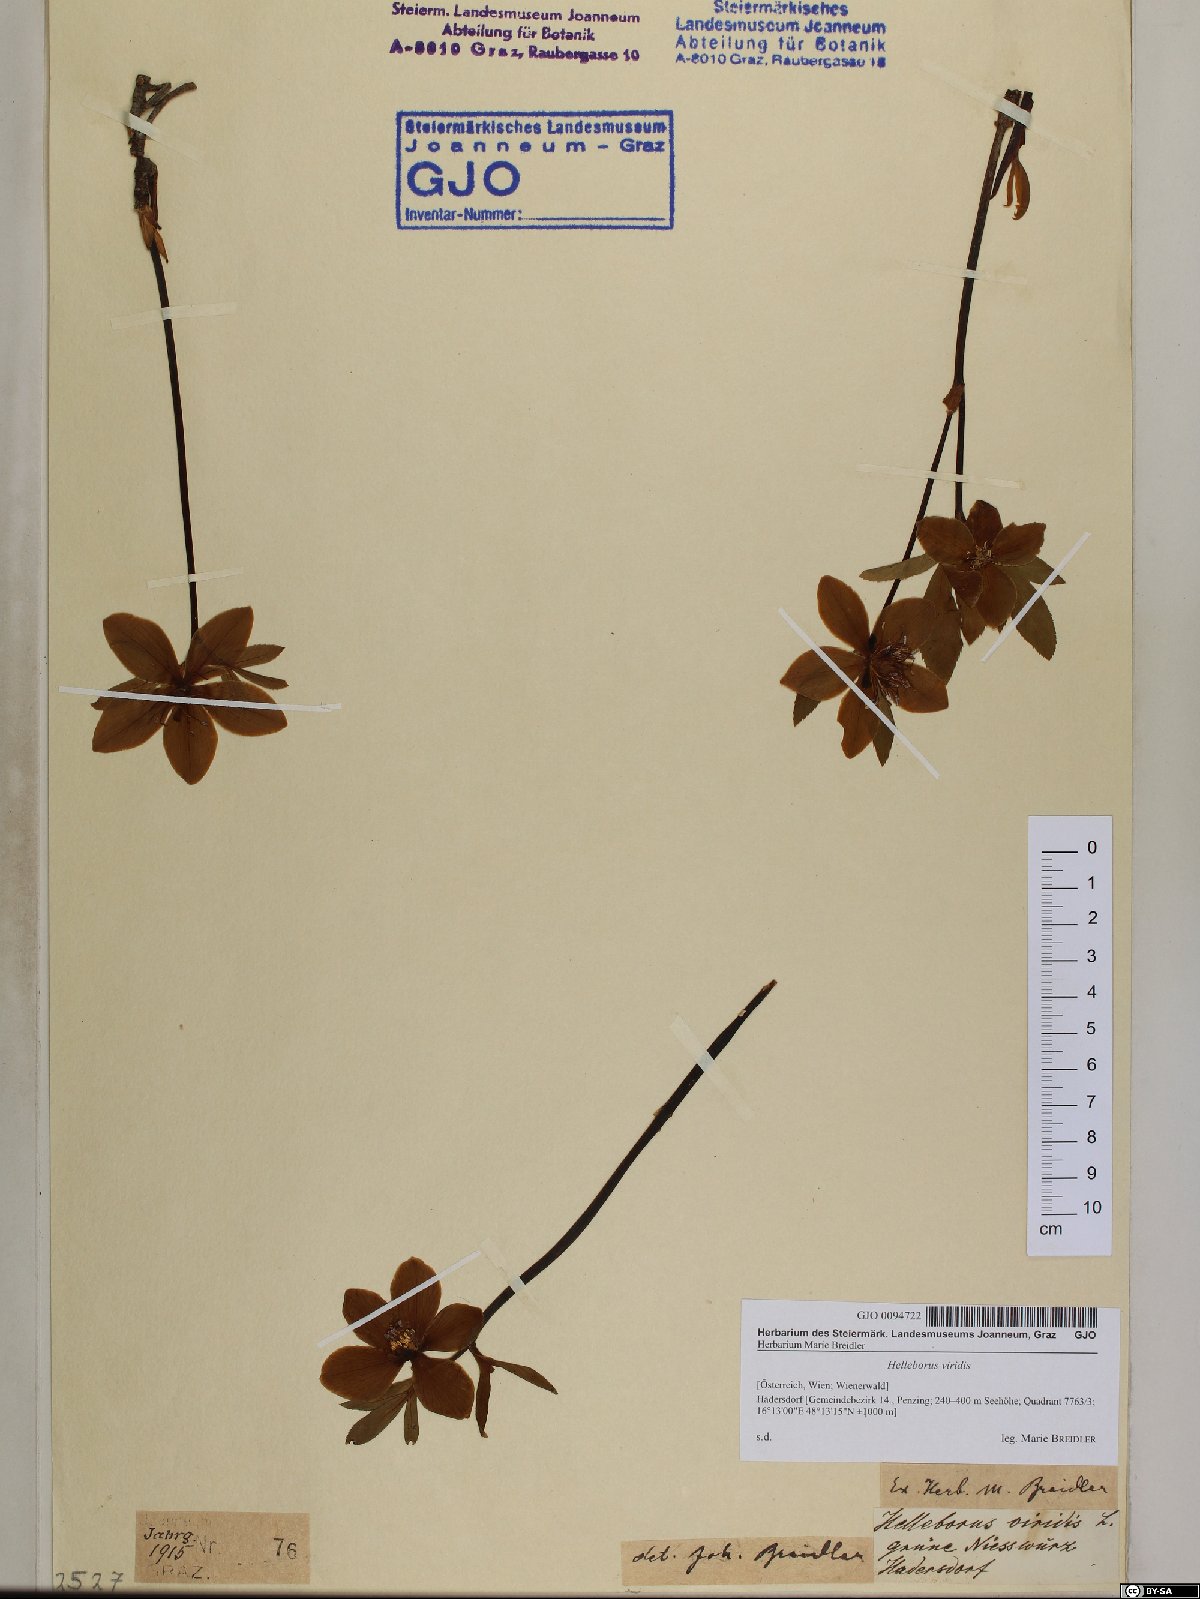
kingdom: Plantae
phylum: Tracheophyta
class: Magnoliopsida
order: Ranunculales
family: Ranunculaceae
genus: Helleborus
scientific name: Helleborus viridis
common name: Green hellebore
